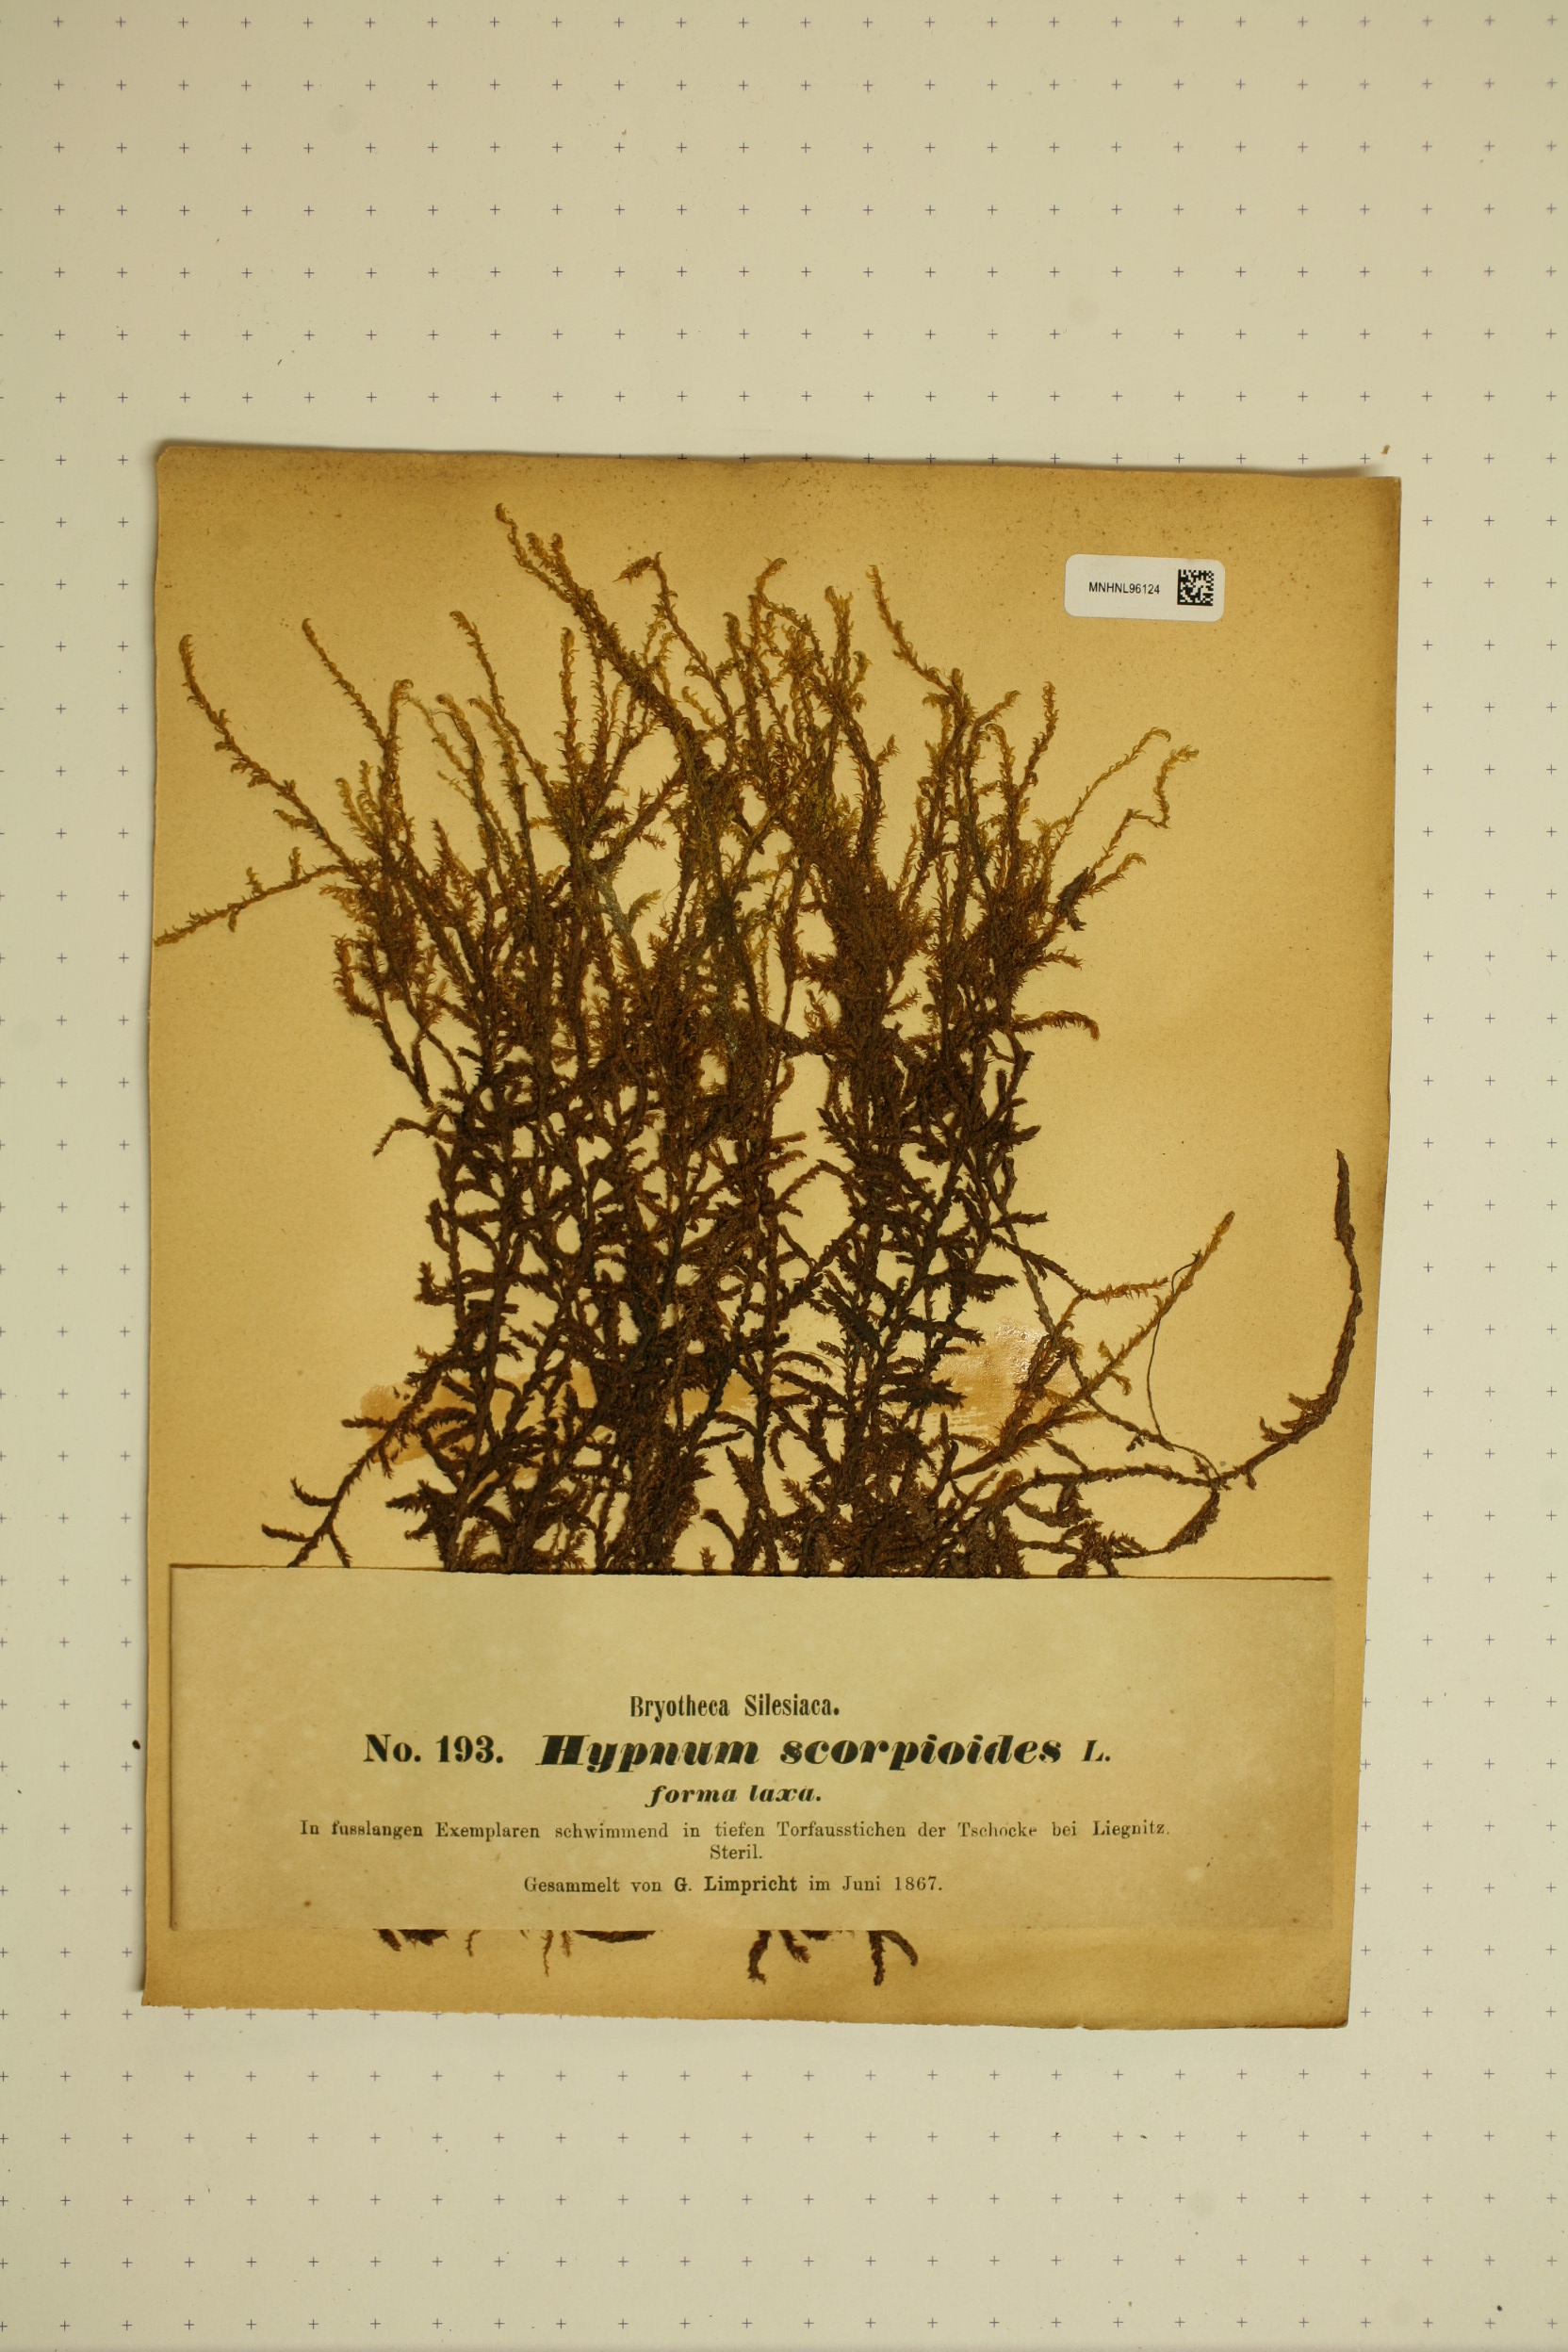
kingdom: Plantae
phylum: Bryophyta
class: Bryopsida
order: Hypnales
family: Scorpidiaceae
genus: Scorpidium
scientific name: Scorpidium scorpioides
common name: Hooked scorpion moss
